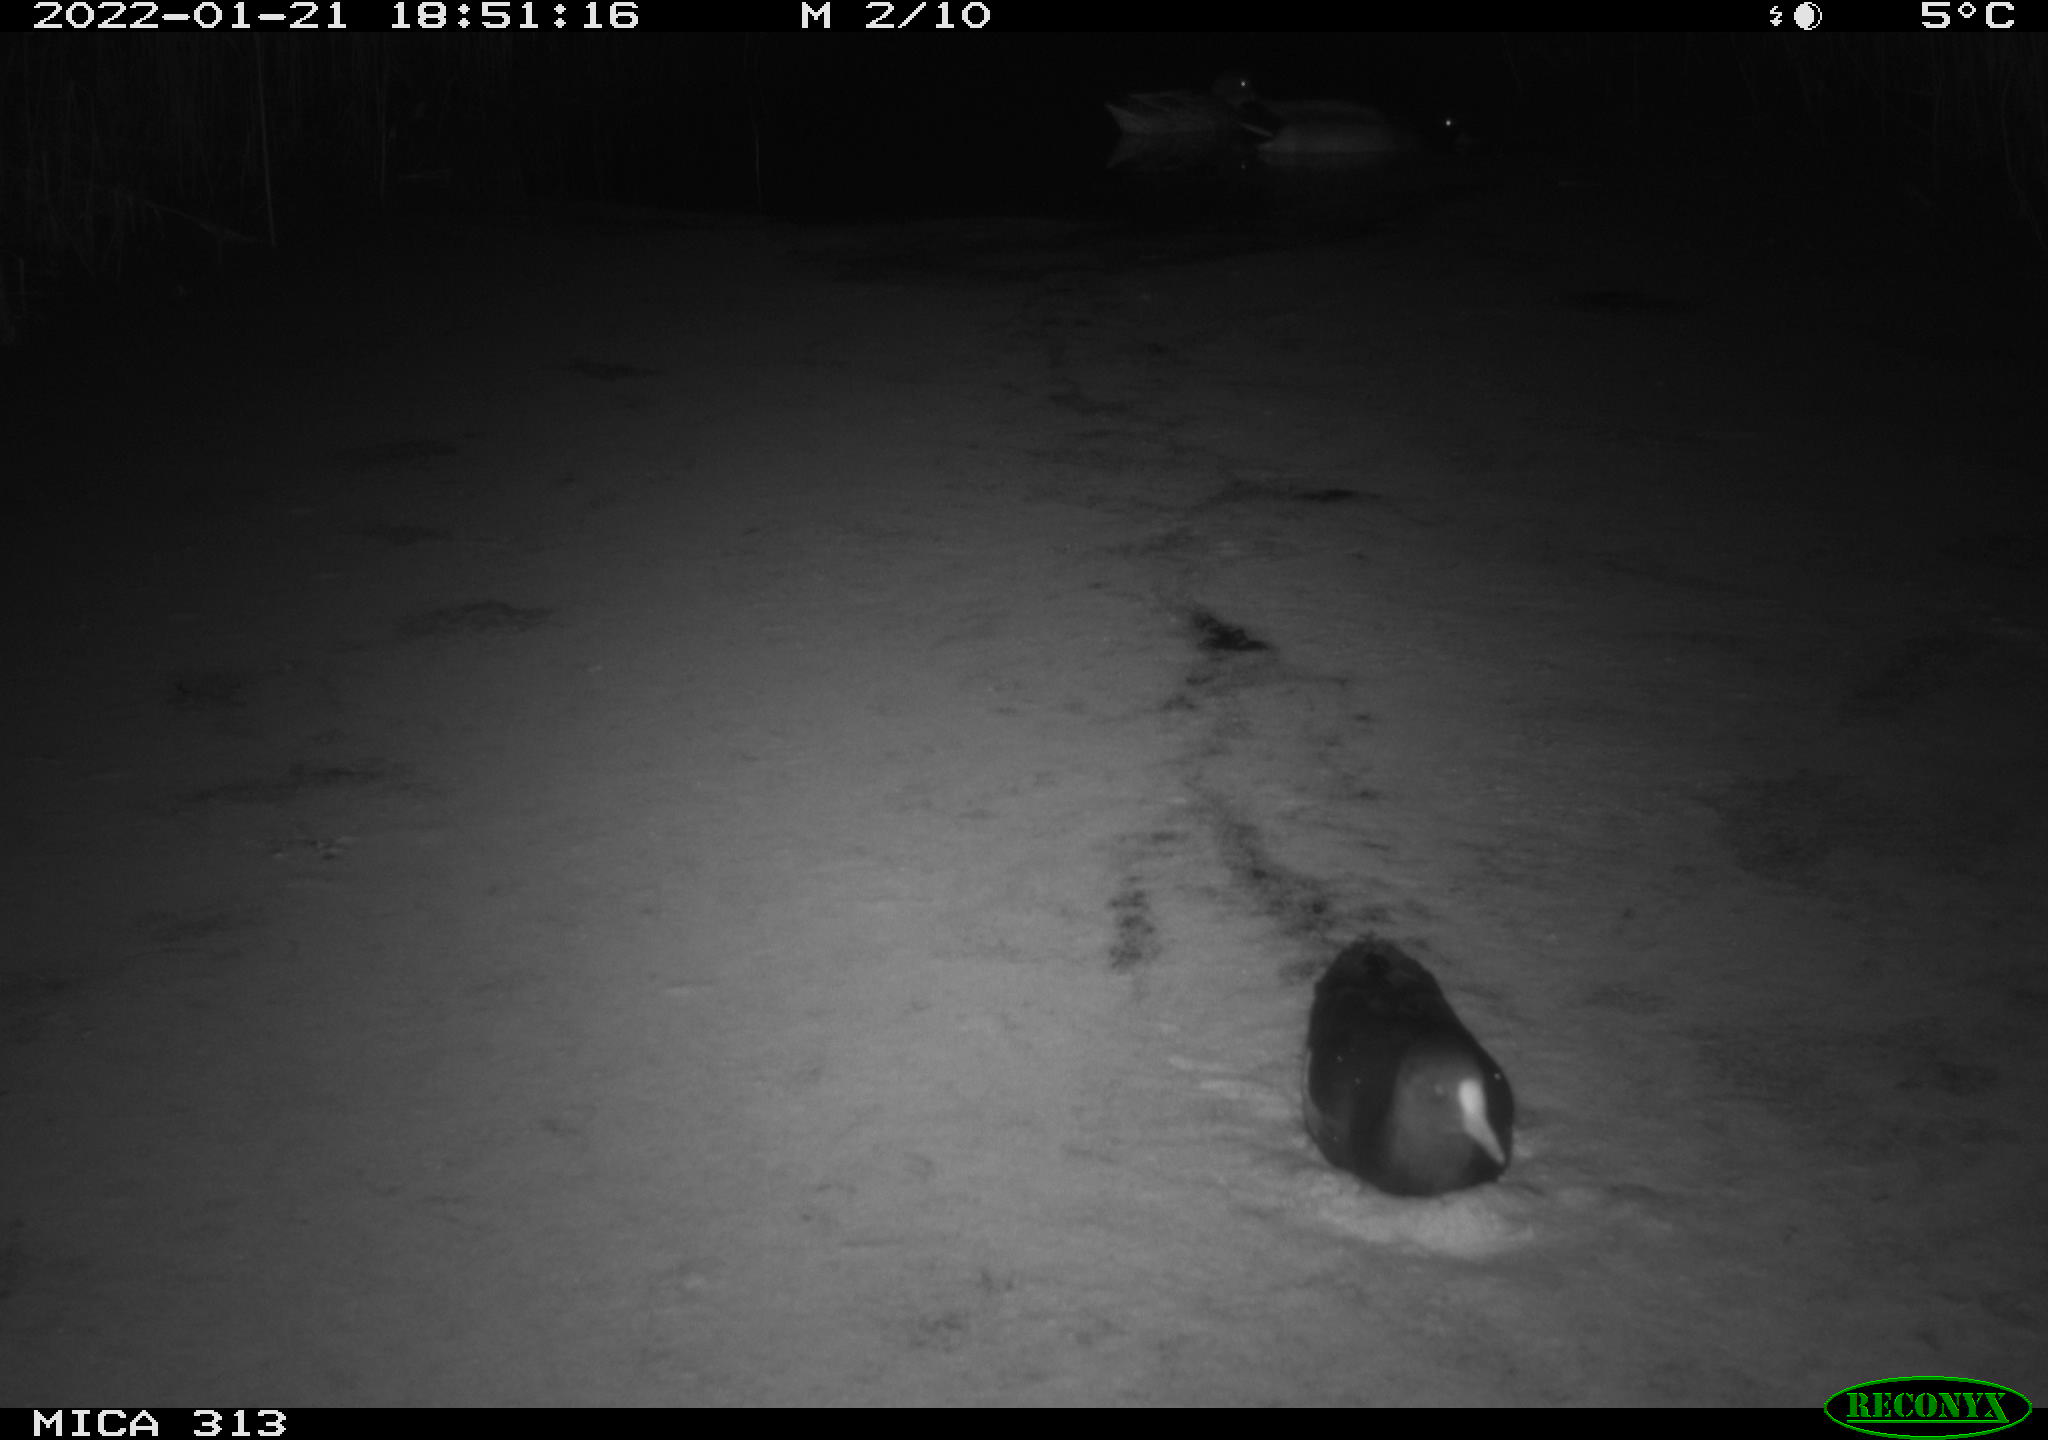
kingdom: Animalia
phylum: Chordata
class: Aves
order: Gruiformes
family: Rallidae
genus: Fulica
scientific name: Fulica atra
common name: Eurasian coot
